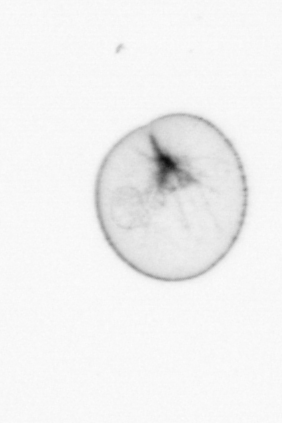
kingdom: Chromista
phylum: Myzozoa
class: Dinophyceae
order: Noctilucales
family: Noctilucaceae
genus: Noctiluca
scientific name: Noctiluca scintillans
